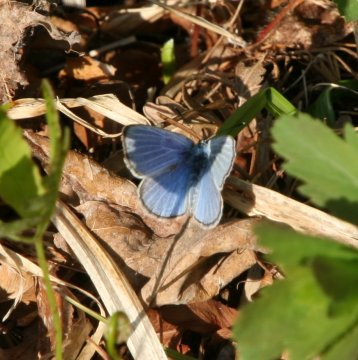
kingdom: Animalia
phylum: Arthropoda
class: Insecta
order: Lepidoptera
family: Lycaenidae
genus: Glaucopsyche
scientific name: Glaucopsyche lygdamus
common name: Silvery Blue
